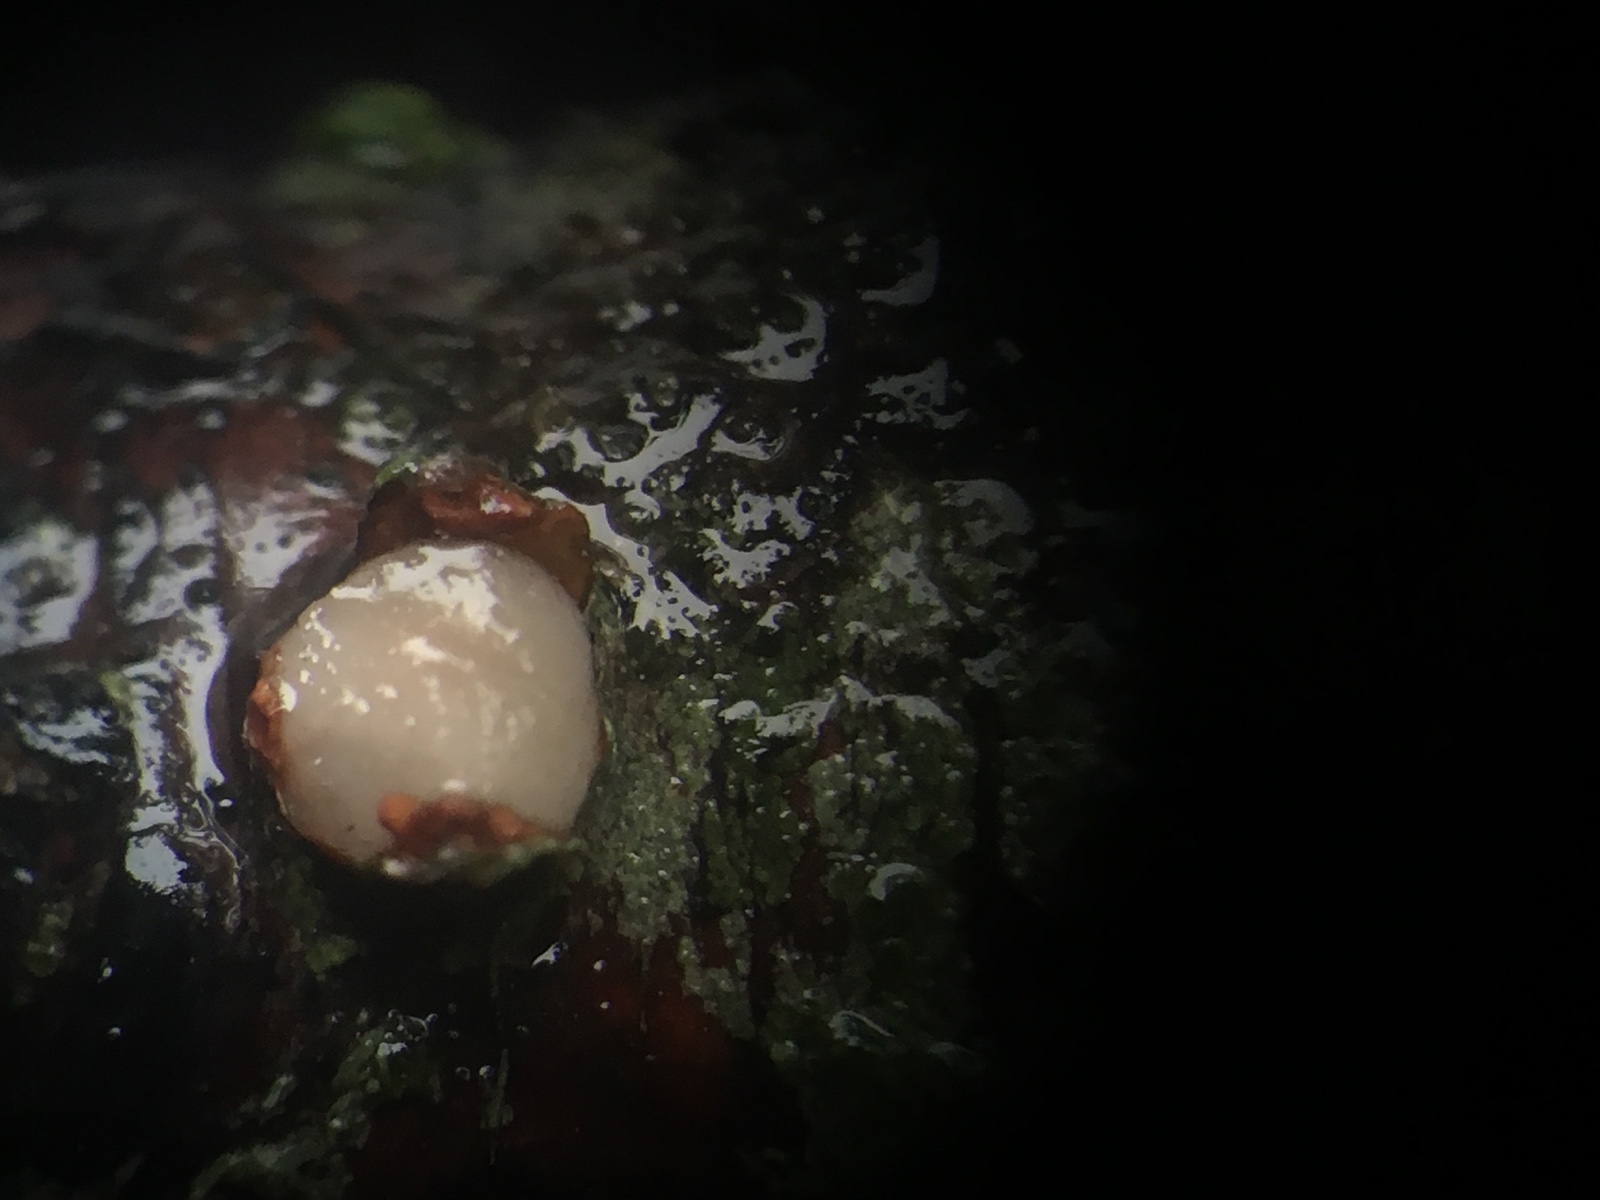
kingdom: Fungi
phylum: Basidiomycota
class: Pucciniomycetes
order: Platygloeales
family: Platygloeaceae
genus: Platygloea
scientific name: Platygloea disciformis
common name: linde-slimklat
